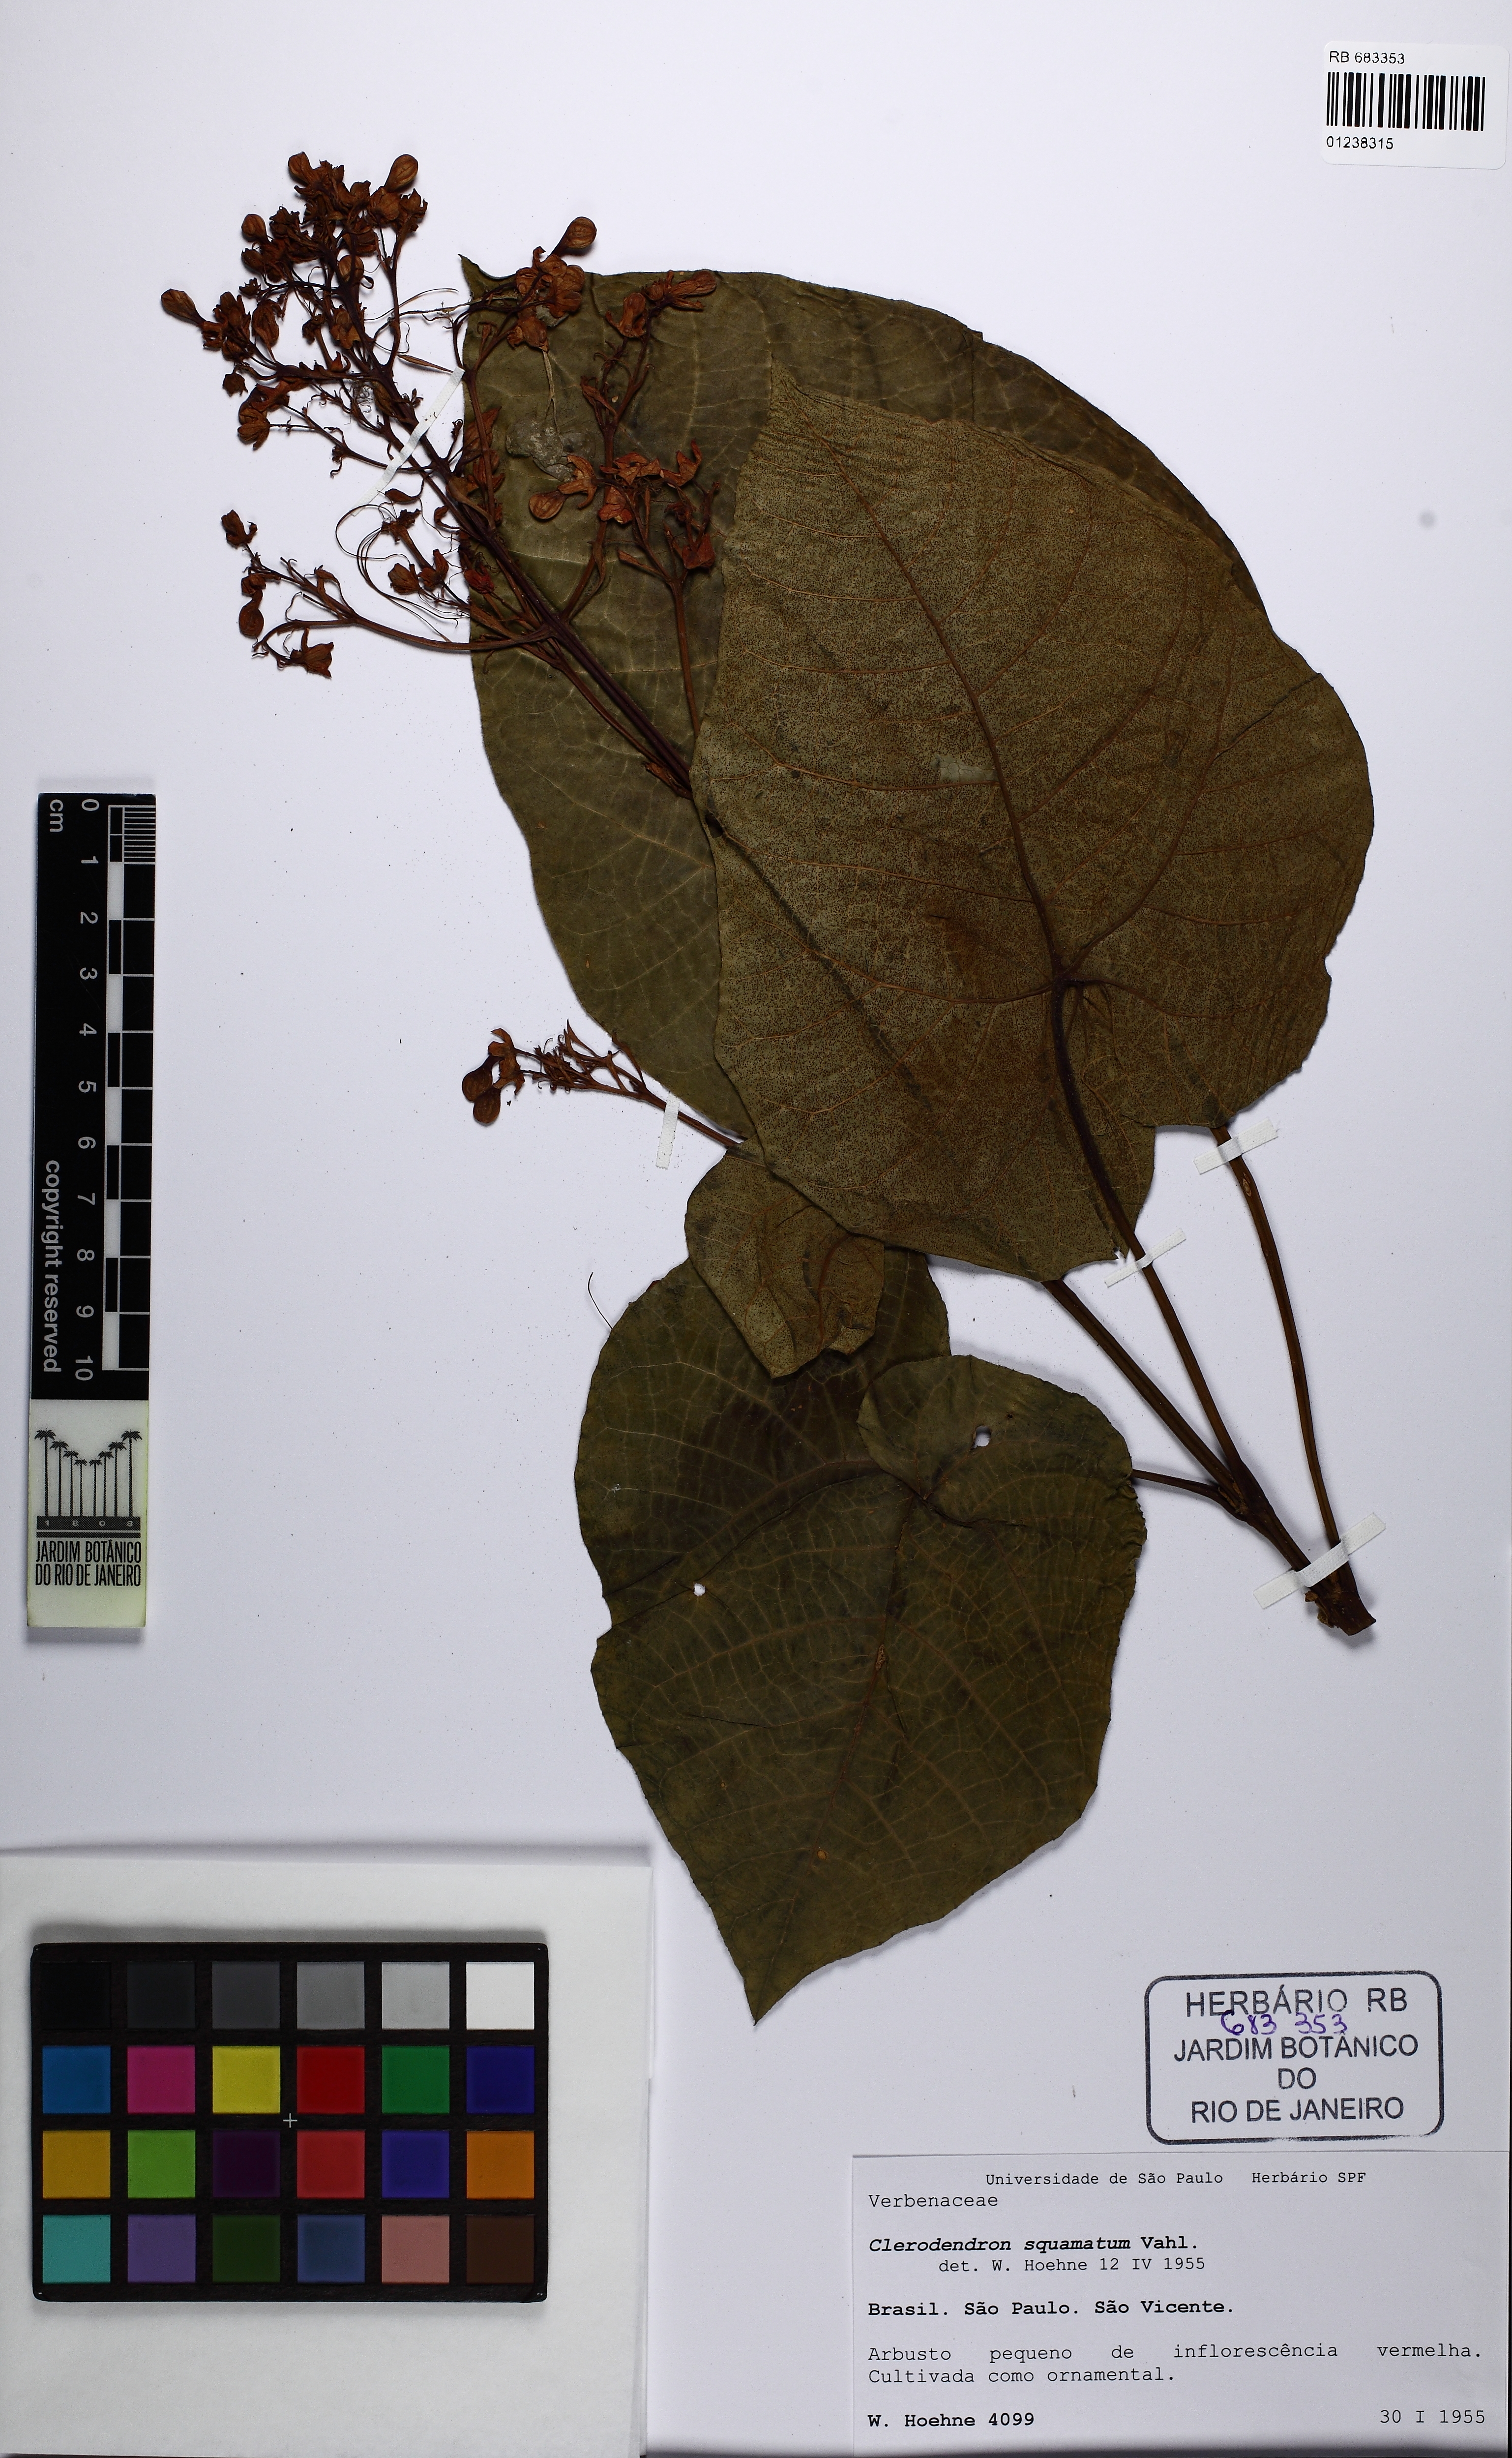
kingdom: Plantae
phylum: Tracheophyta
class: Magnoliopsida
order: Lamiales
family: Lamiaceae
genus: Clerodendrum
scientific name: Clerodendrum japonicum
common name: Japanese glorybower
